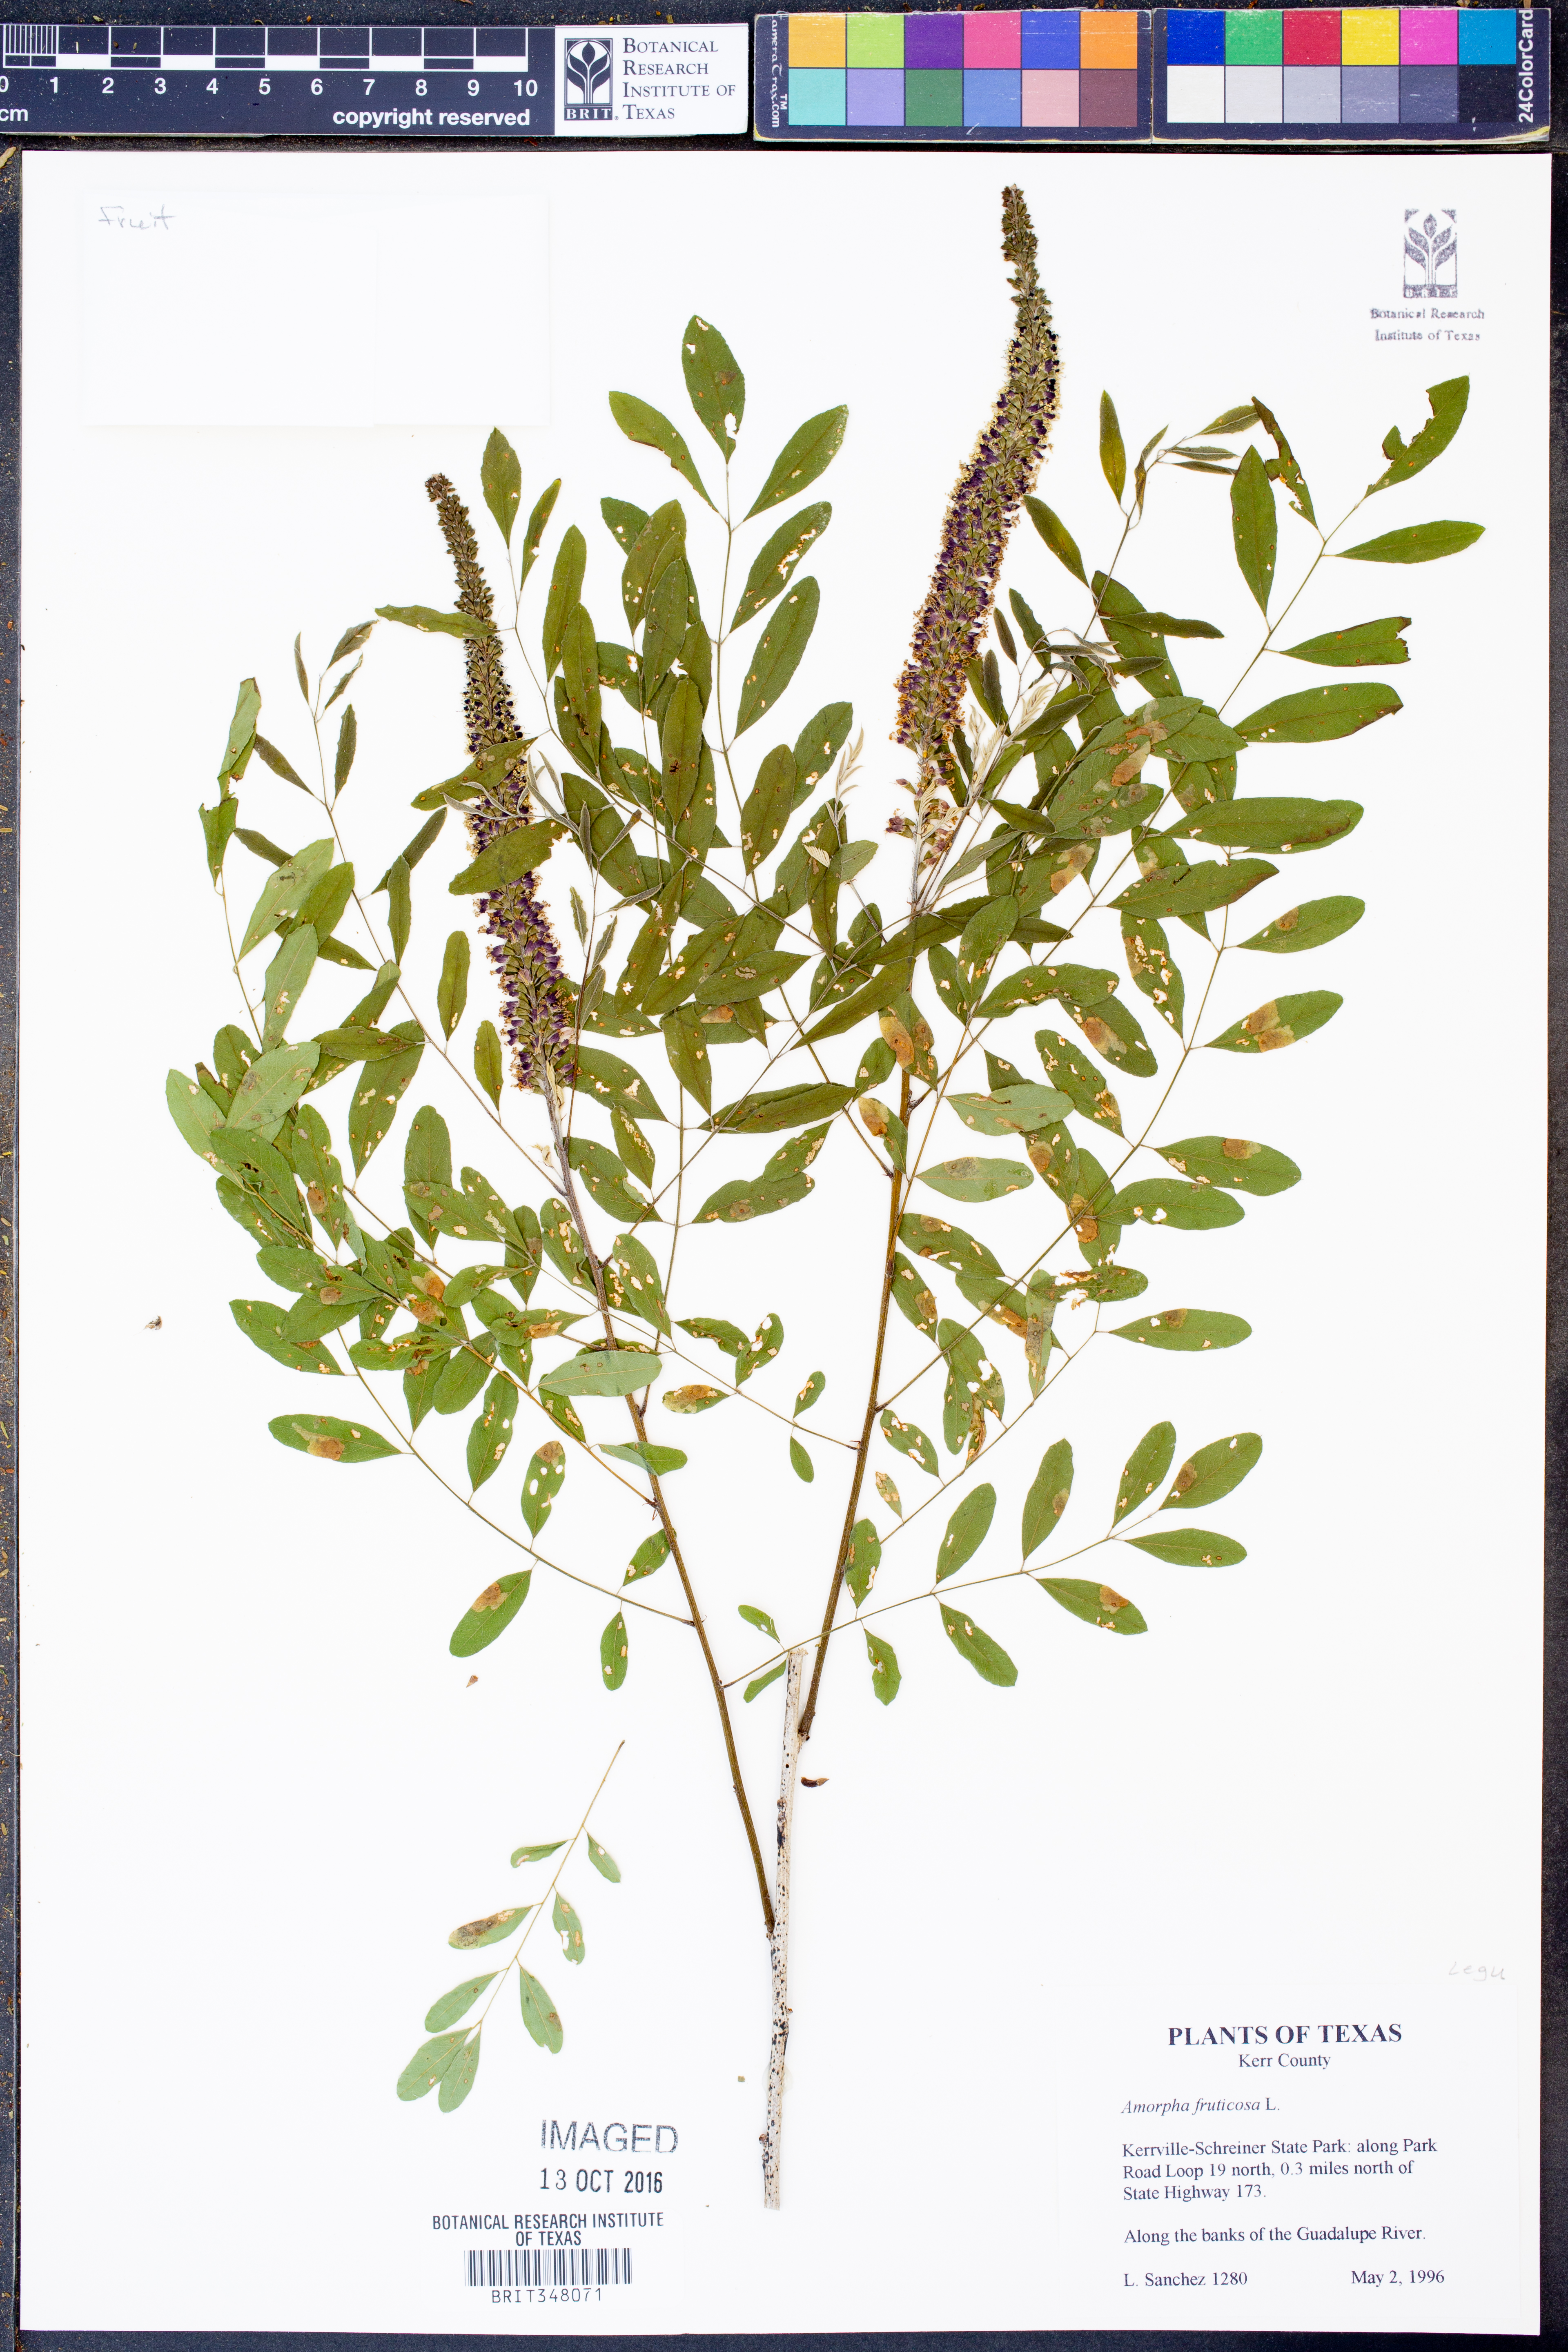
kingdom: Plantae
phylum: Tracheophyta
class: Magnoliopsida
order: Fabales
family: Fabaceae
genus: Amorpha
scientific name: Amorpha fruticosa
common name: False indigo
